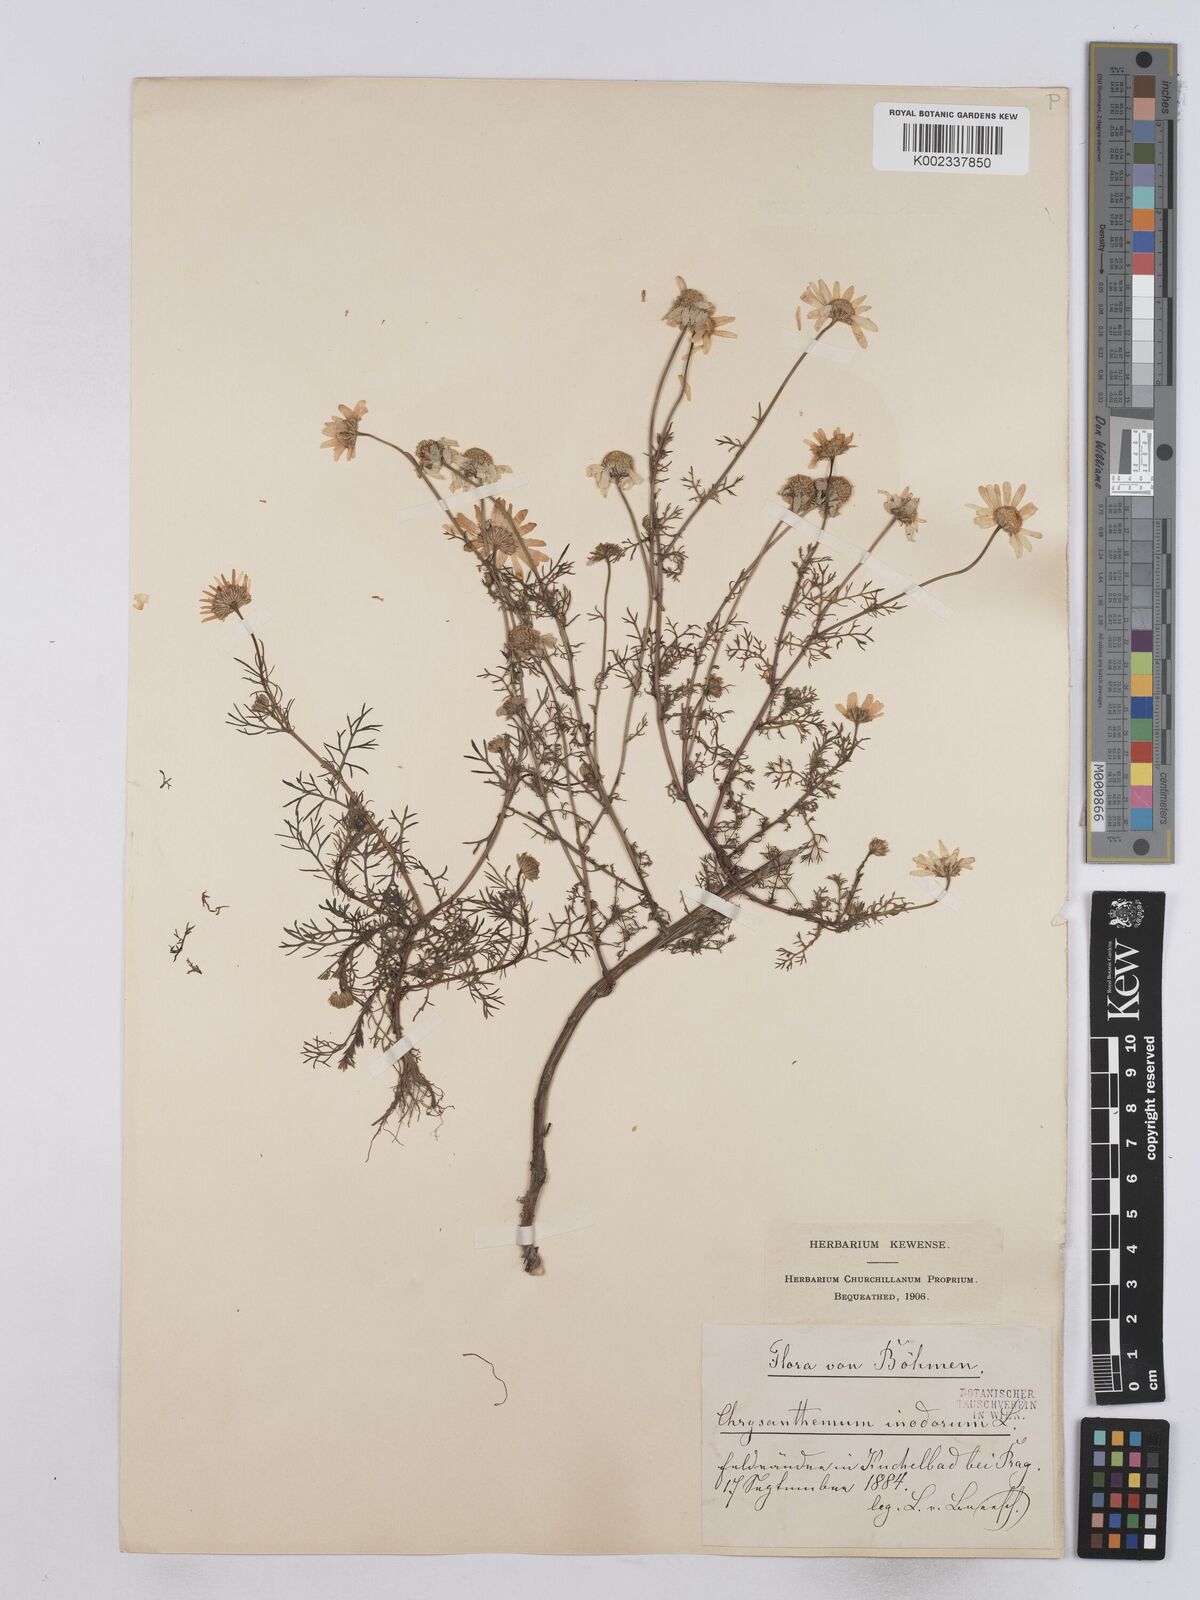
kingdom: Plantae
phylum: Tracheophyta
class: Magnoliopsida
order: Asterales
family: Asteraceae
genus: Matricaria
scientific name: Matricaria chamomilla
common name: Scented mayweed
